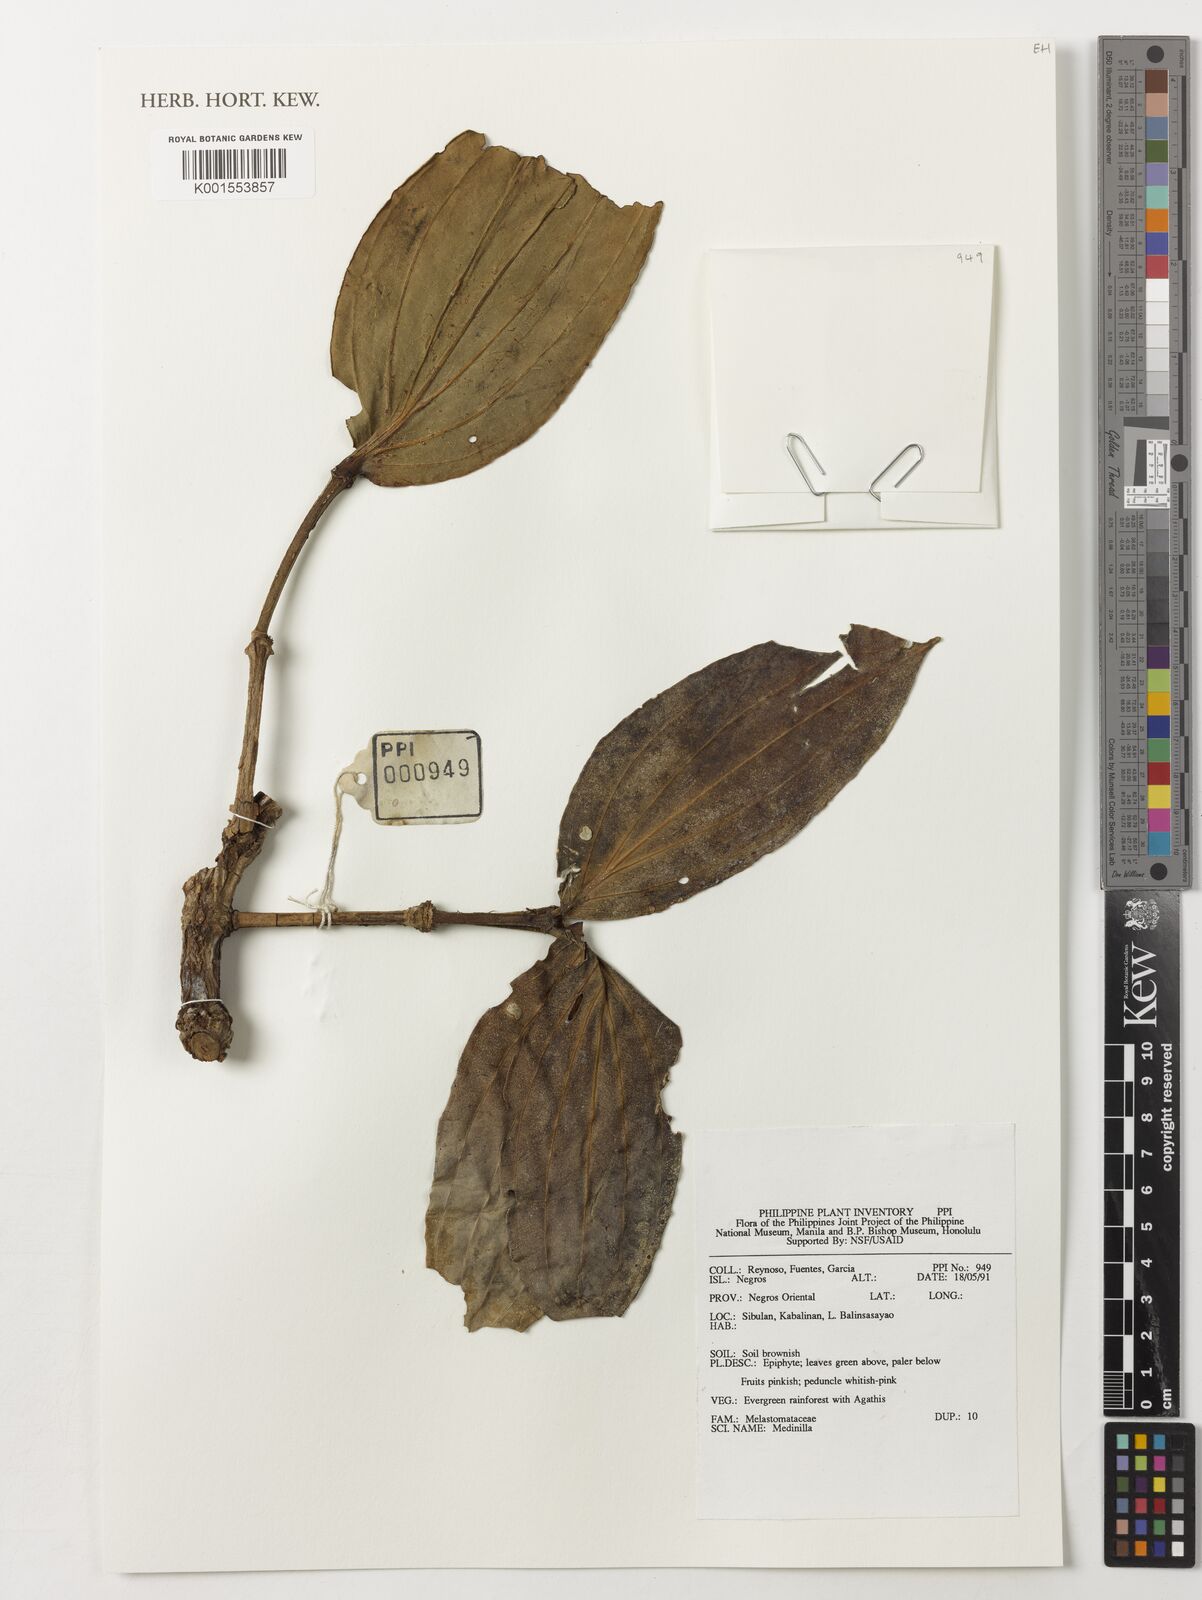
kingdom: Plantae
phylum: Tracheophyta
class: Magnoliopsida
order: Myrtales
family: Melastomataceae
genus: Medinilla
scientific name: Medinilla
